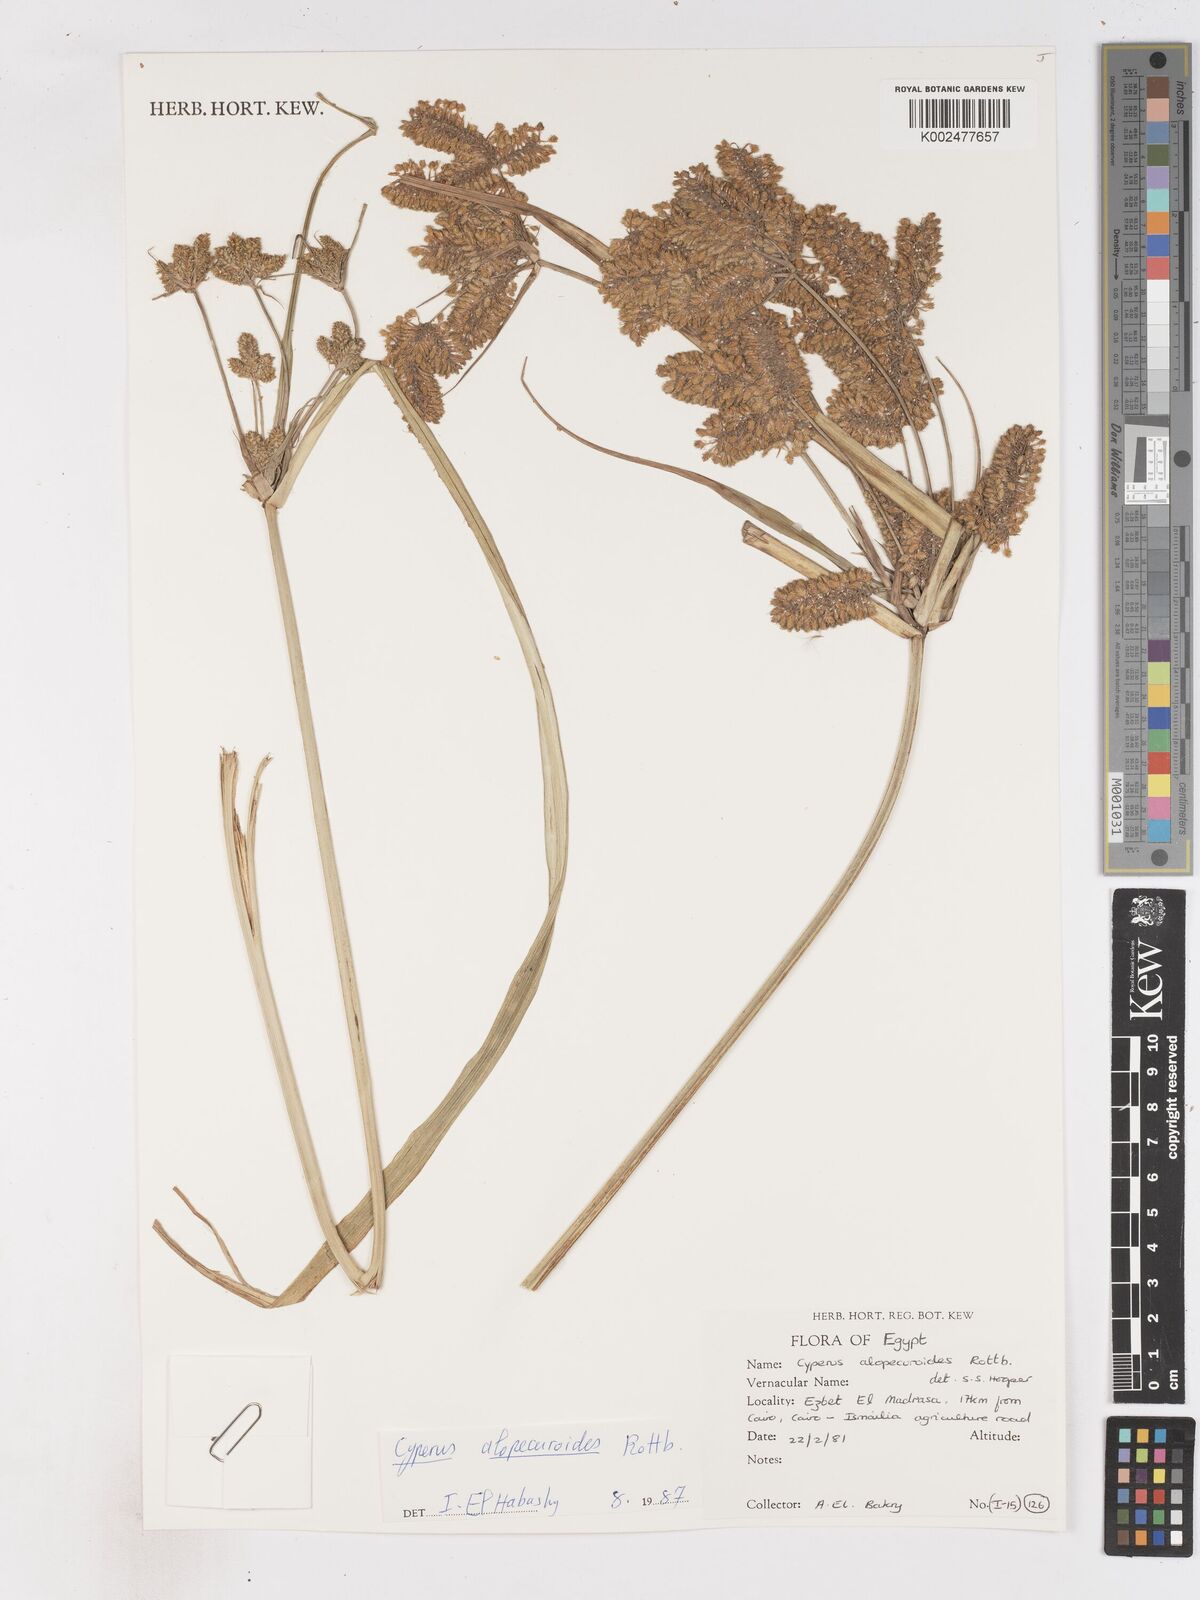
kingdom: Plantae
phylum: Tracheophyta
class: Liliopsida
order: Poales
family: Cyperaceae
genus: Cyperus
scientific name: Cyperus alopecuroides
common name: Foxtail flatsedge
